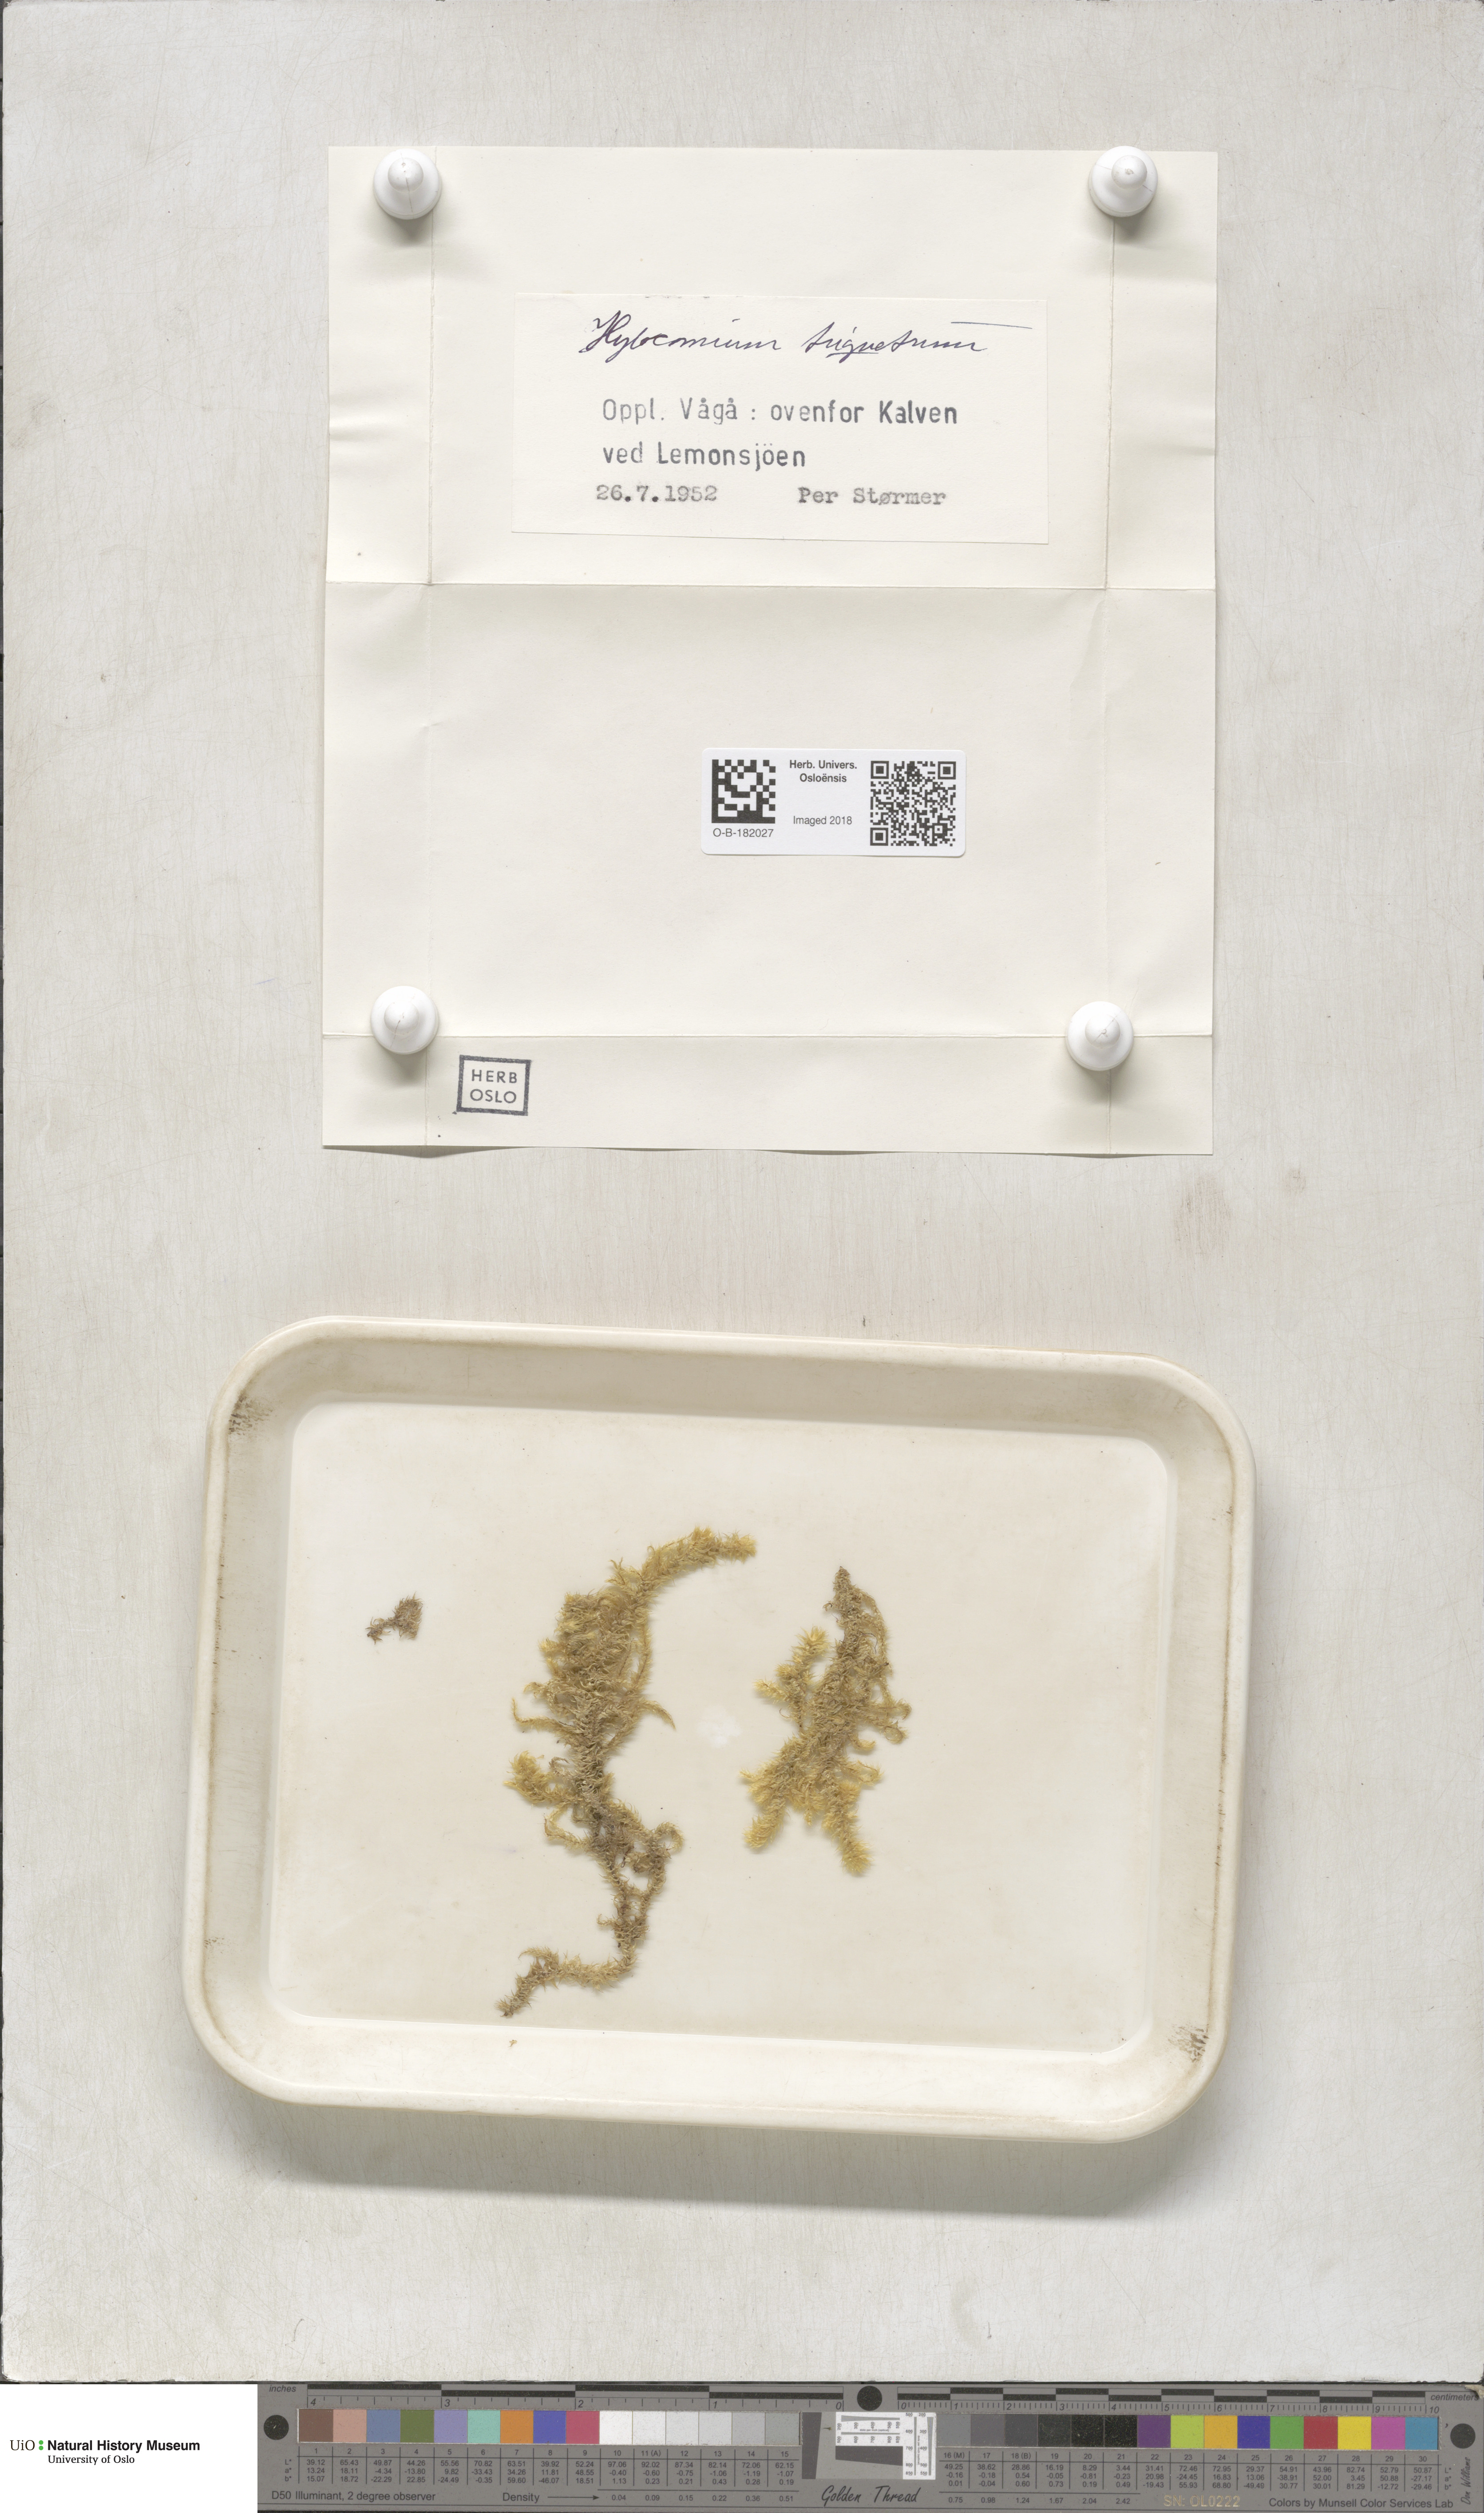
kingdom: Plantae
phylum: Bryophyta
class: Bryopsida
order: Hypnales
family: Hylocomiaceae
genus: Hylocomiadelphus
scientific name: Hylocomiadelphus triquetrus
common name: Rough goose neck moss
